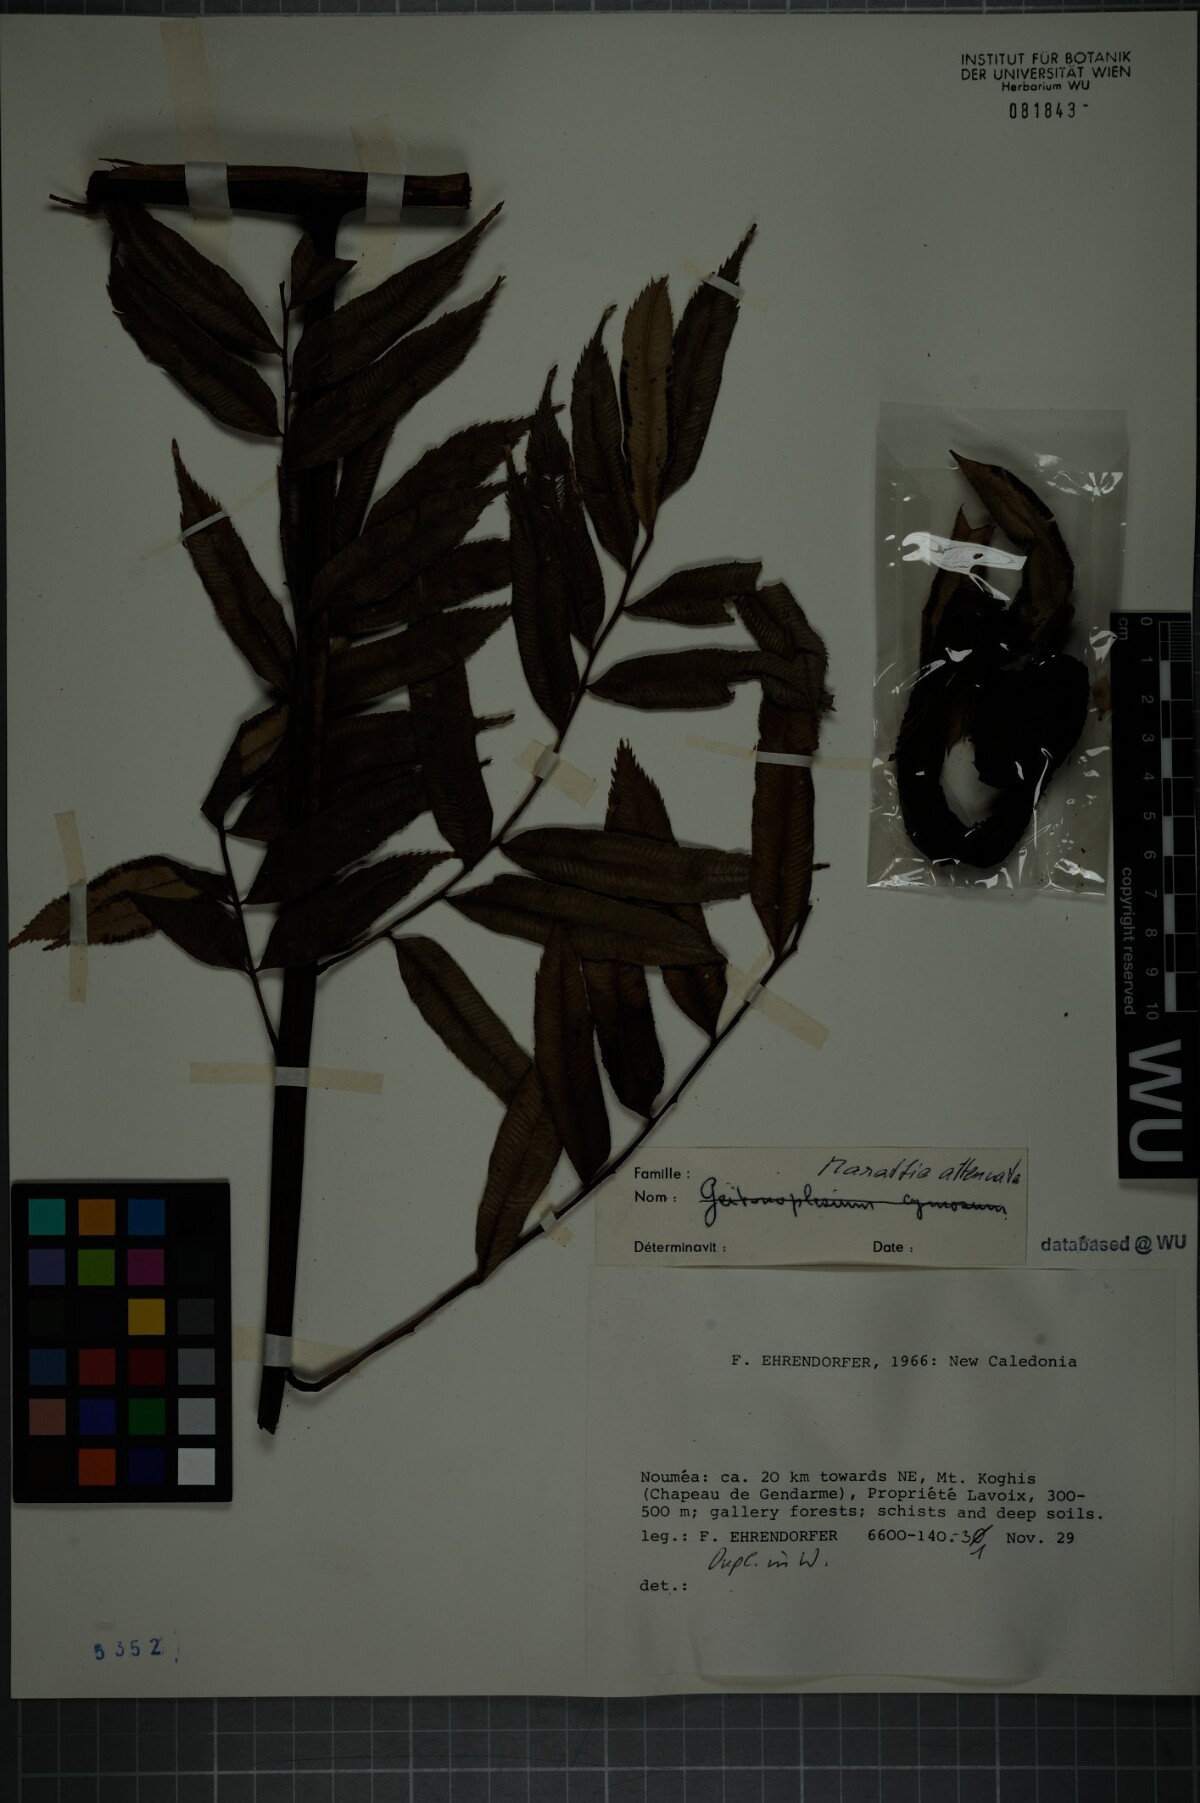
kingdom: Plantae
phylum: Tracheophyta
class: Polypodiopsida
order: Marattiales
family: Marattiaceae
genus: Ptisana
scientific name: Ptisana attenuata
